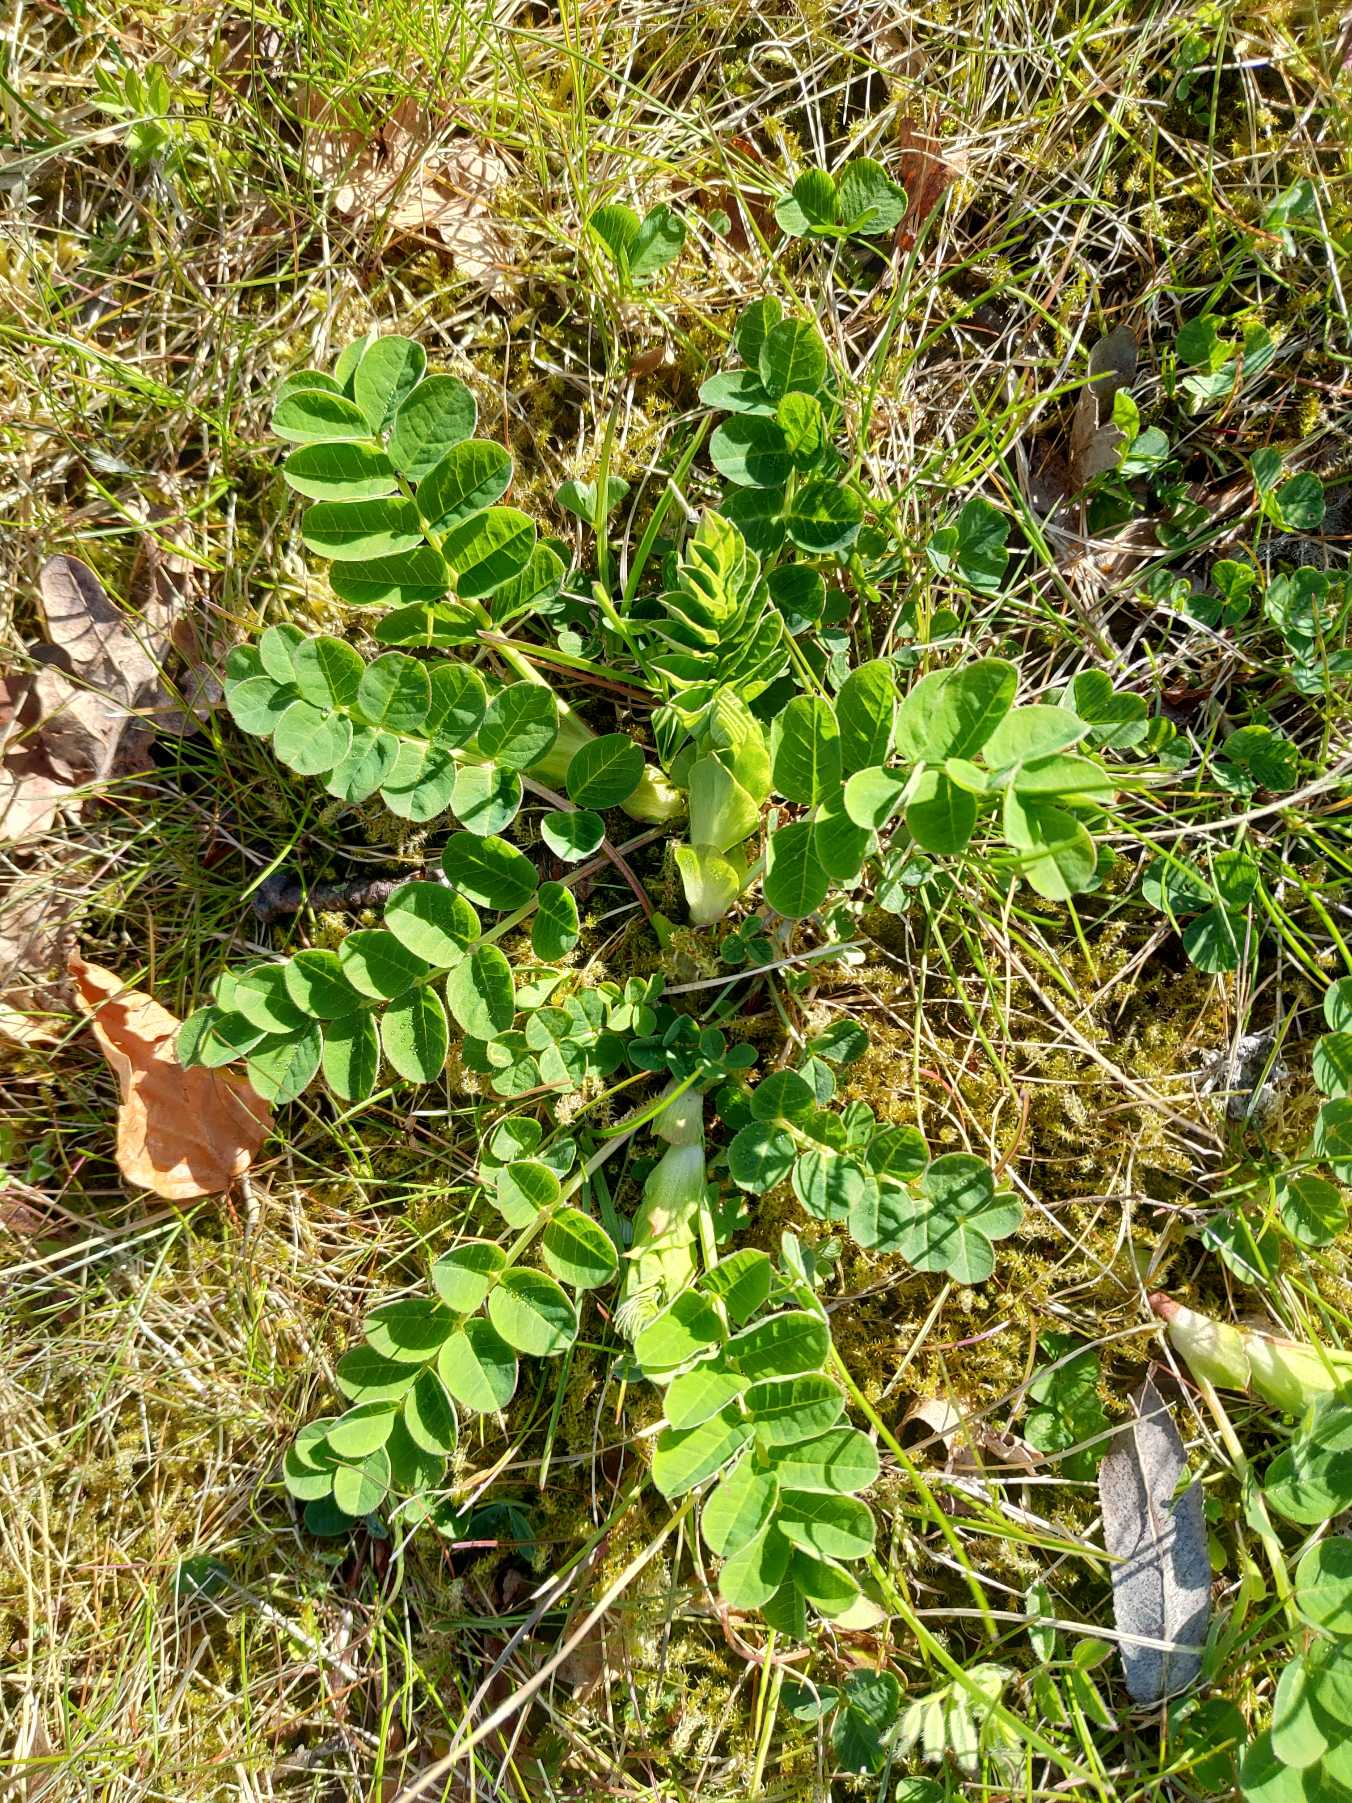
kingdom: Plantae
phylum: Tracheophyta
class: Magnoliopsida
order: Fabales
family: Fabaceae
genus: Astragalus
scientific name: Astragalus glycyphyllos
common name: Sød astragel
